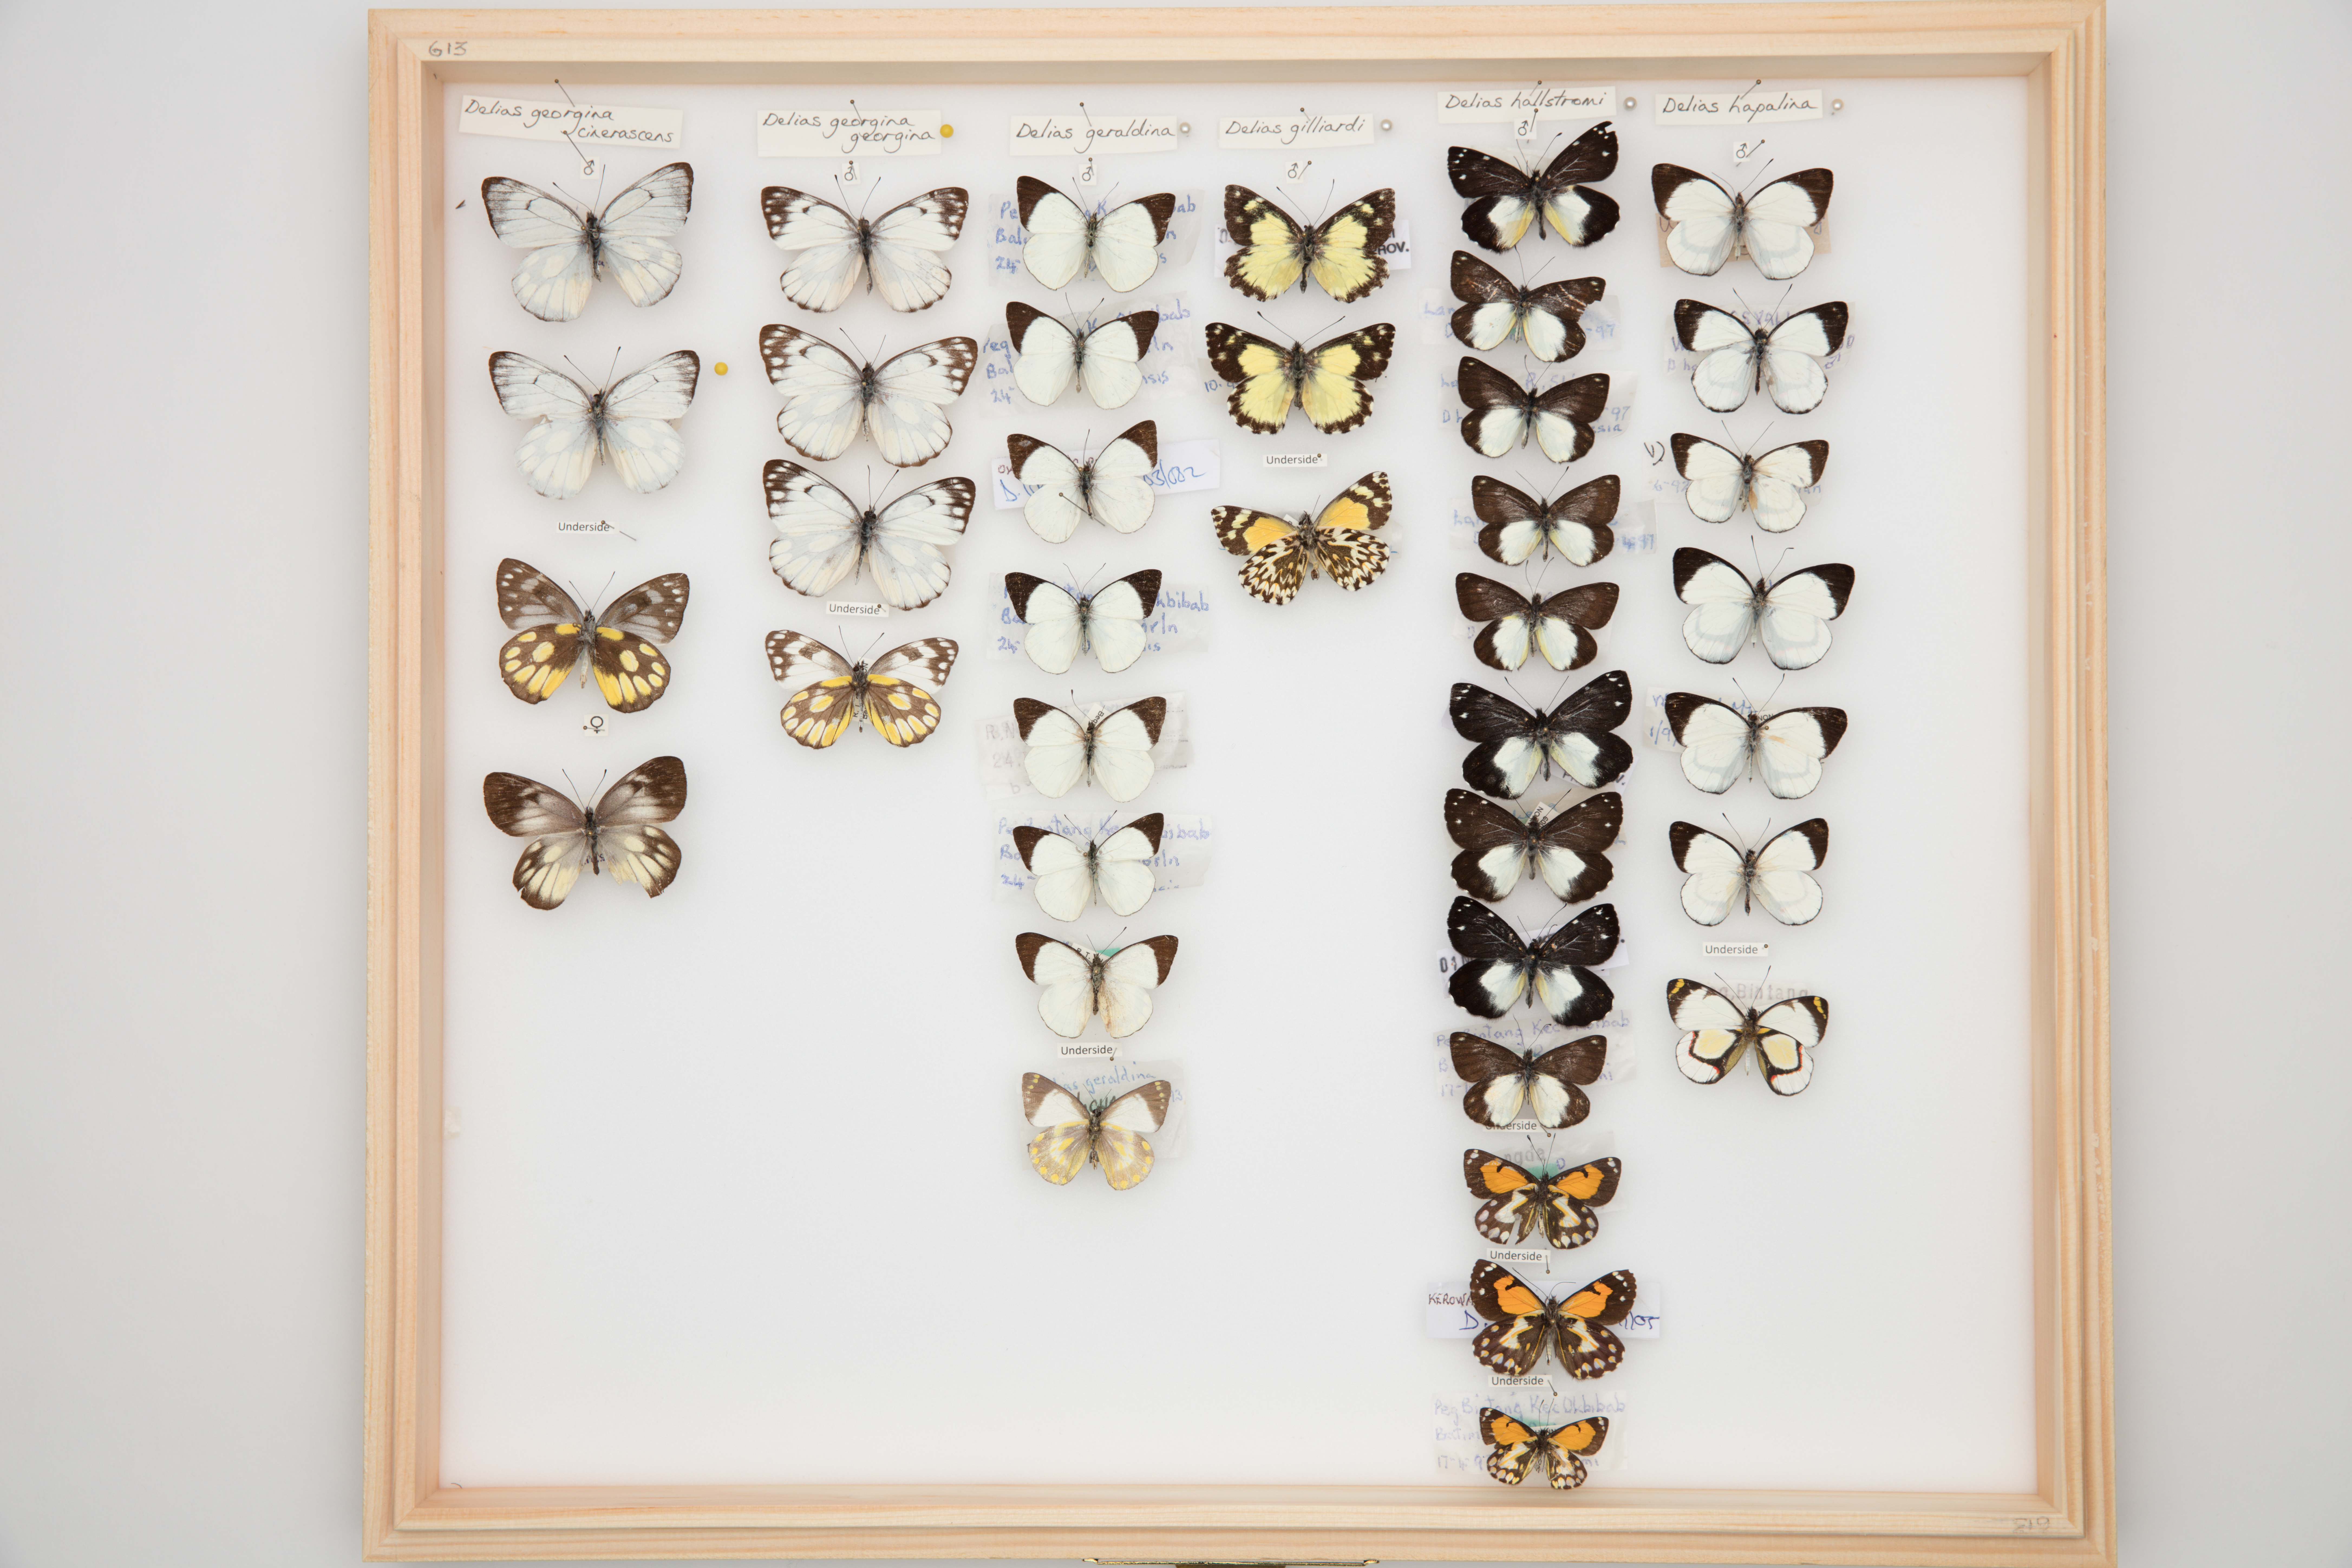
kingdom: Animalia
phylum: Arthropoda
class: Insecta
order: Lepidoptera
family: Pieridae
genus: Delias
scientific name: Delias geraldina
